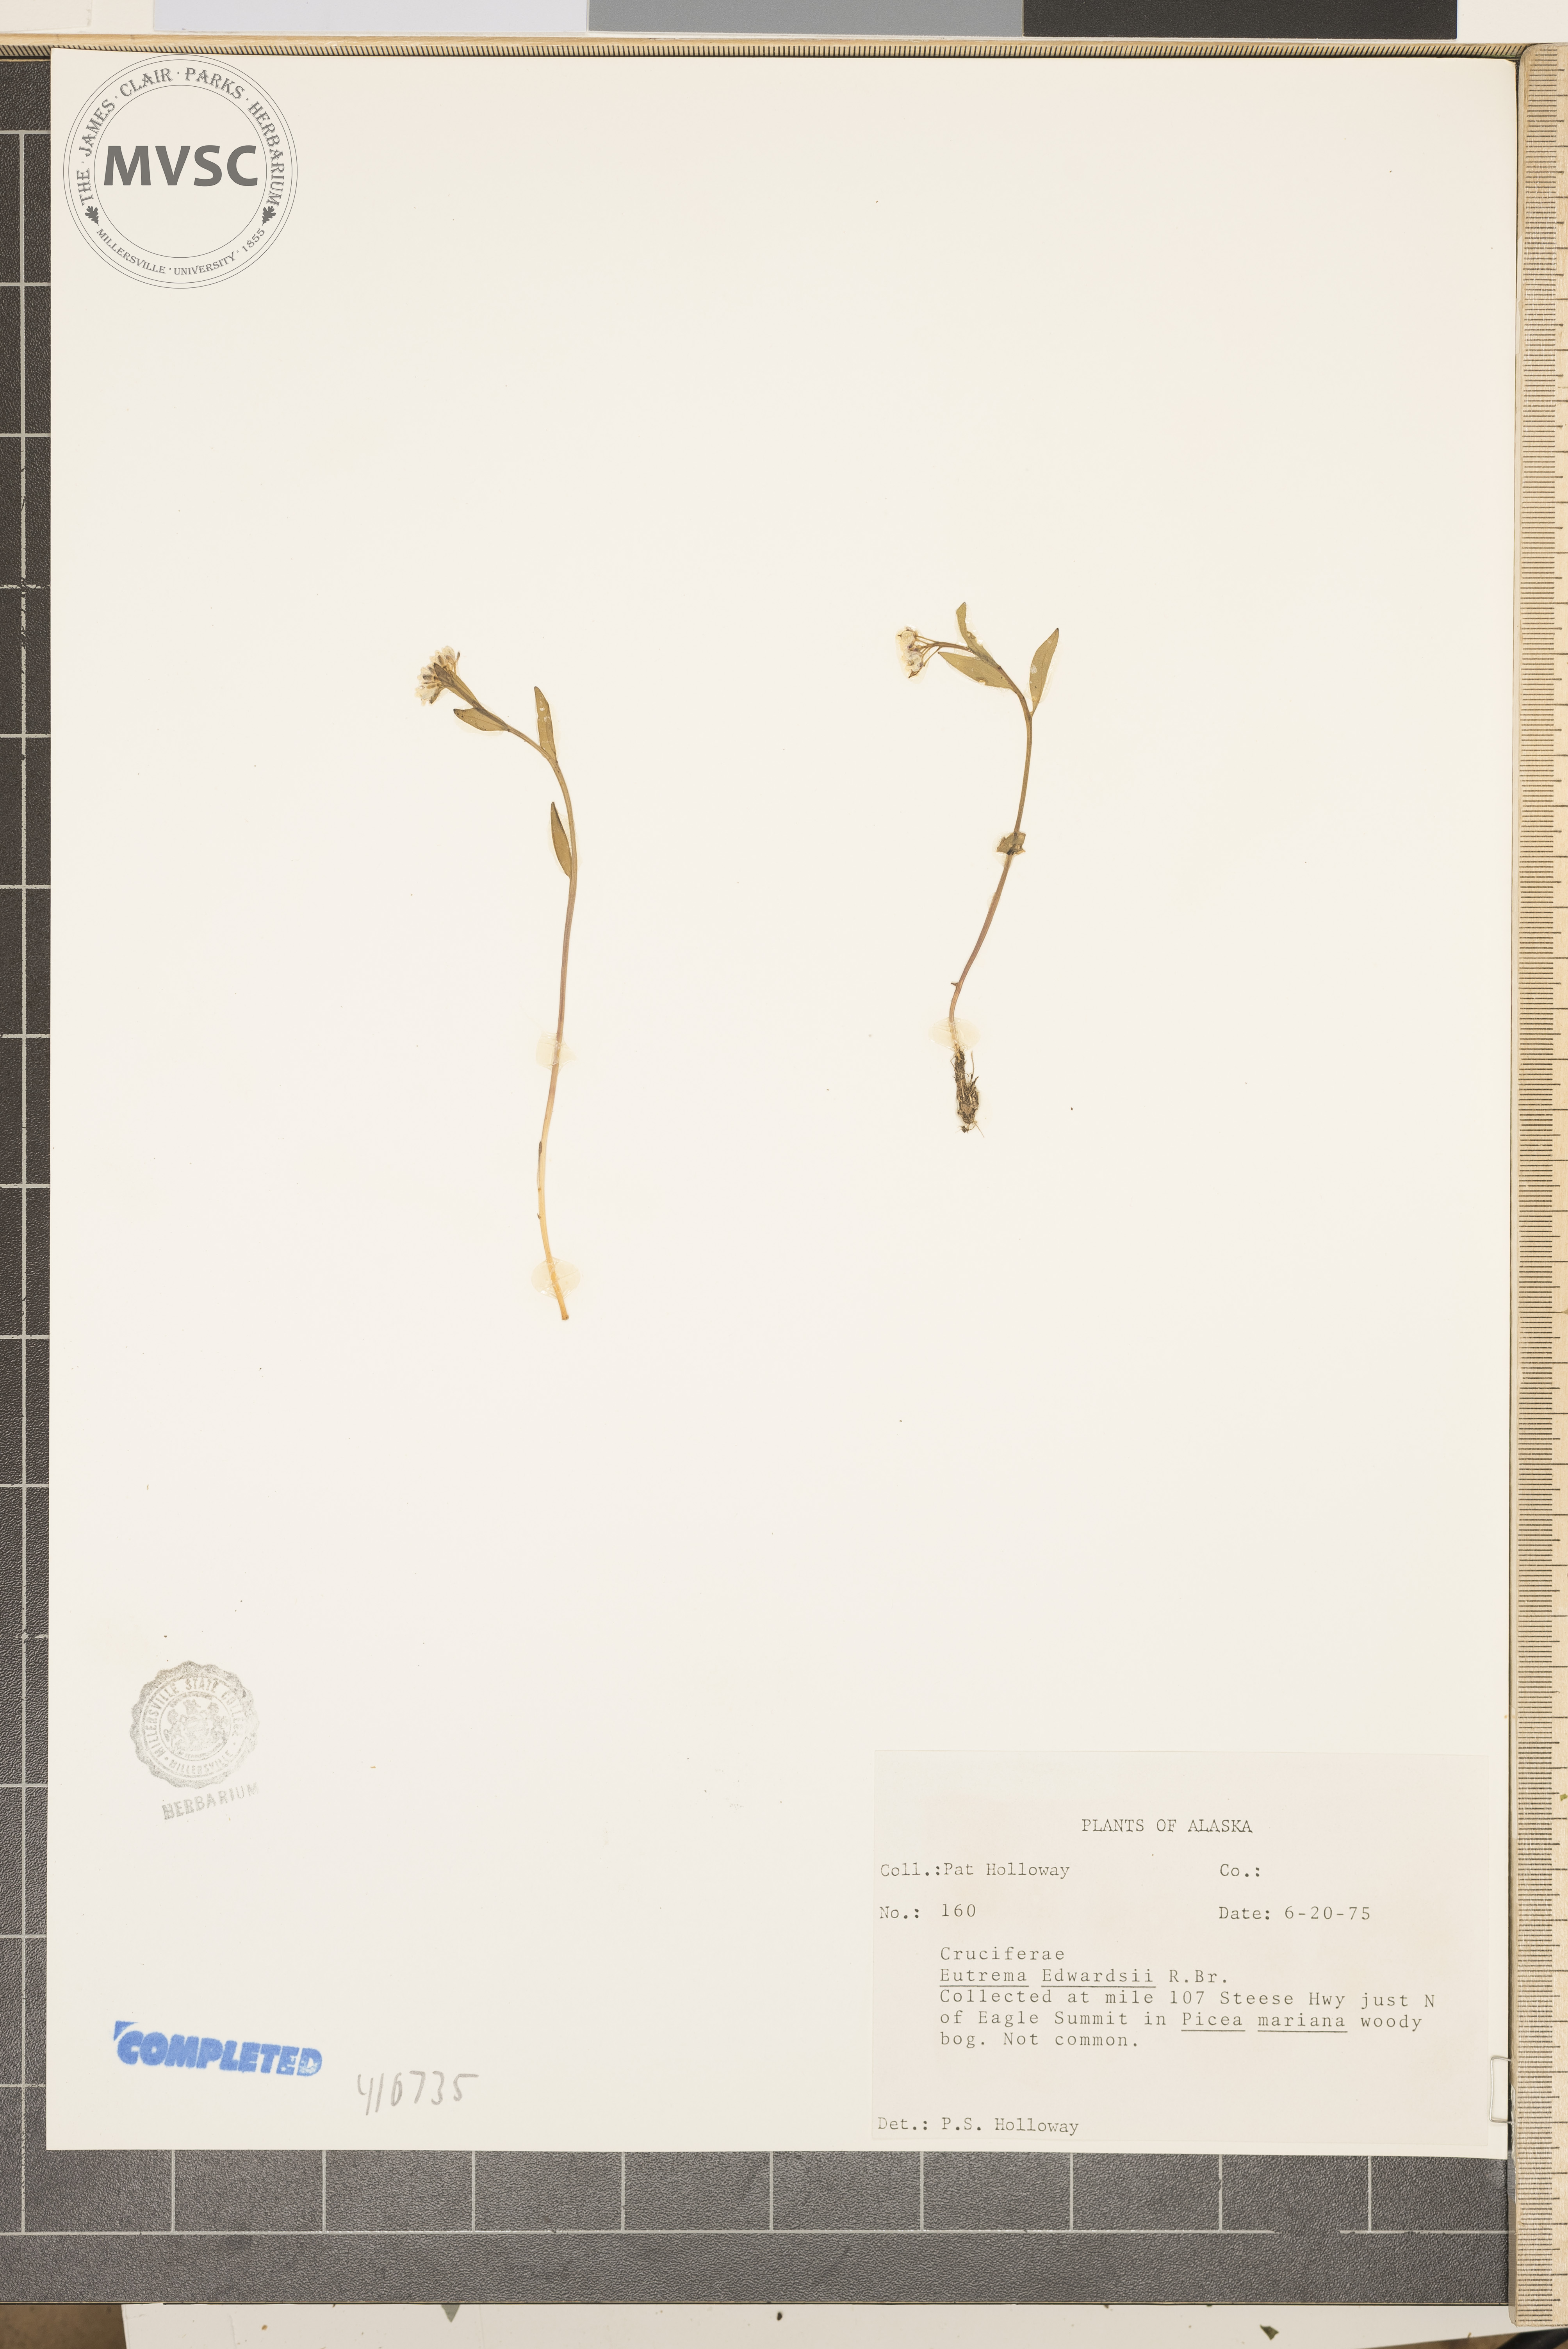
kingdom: Plantae
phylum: Tracheophyta
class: Magnoliopsida
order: Brassicales
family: Brassicaceae
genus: Eutrema
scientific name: Eutrema edwardsii
